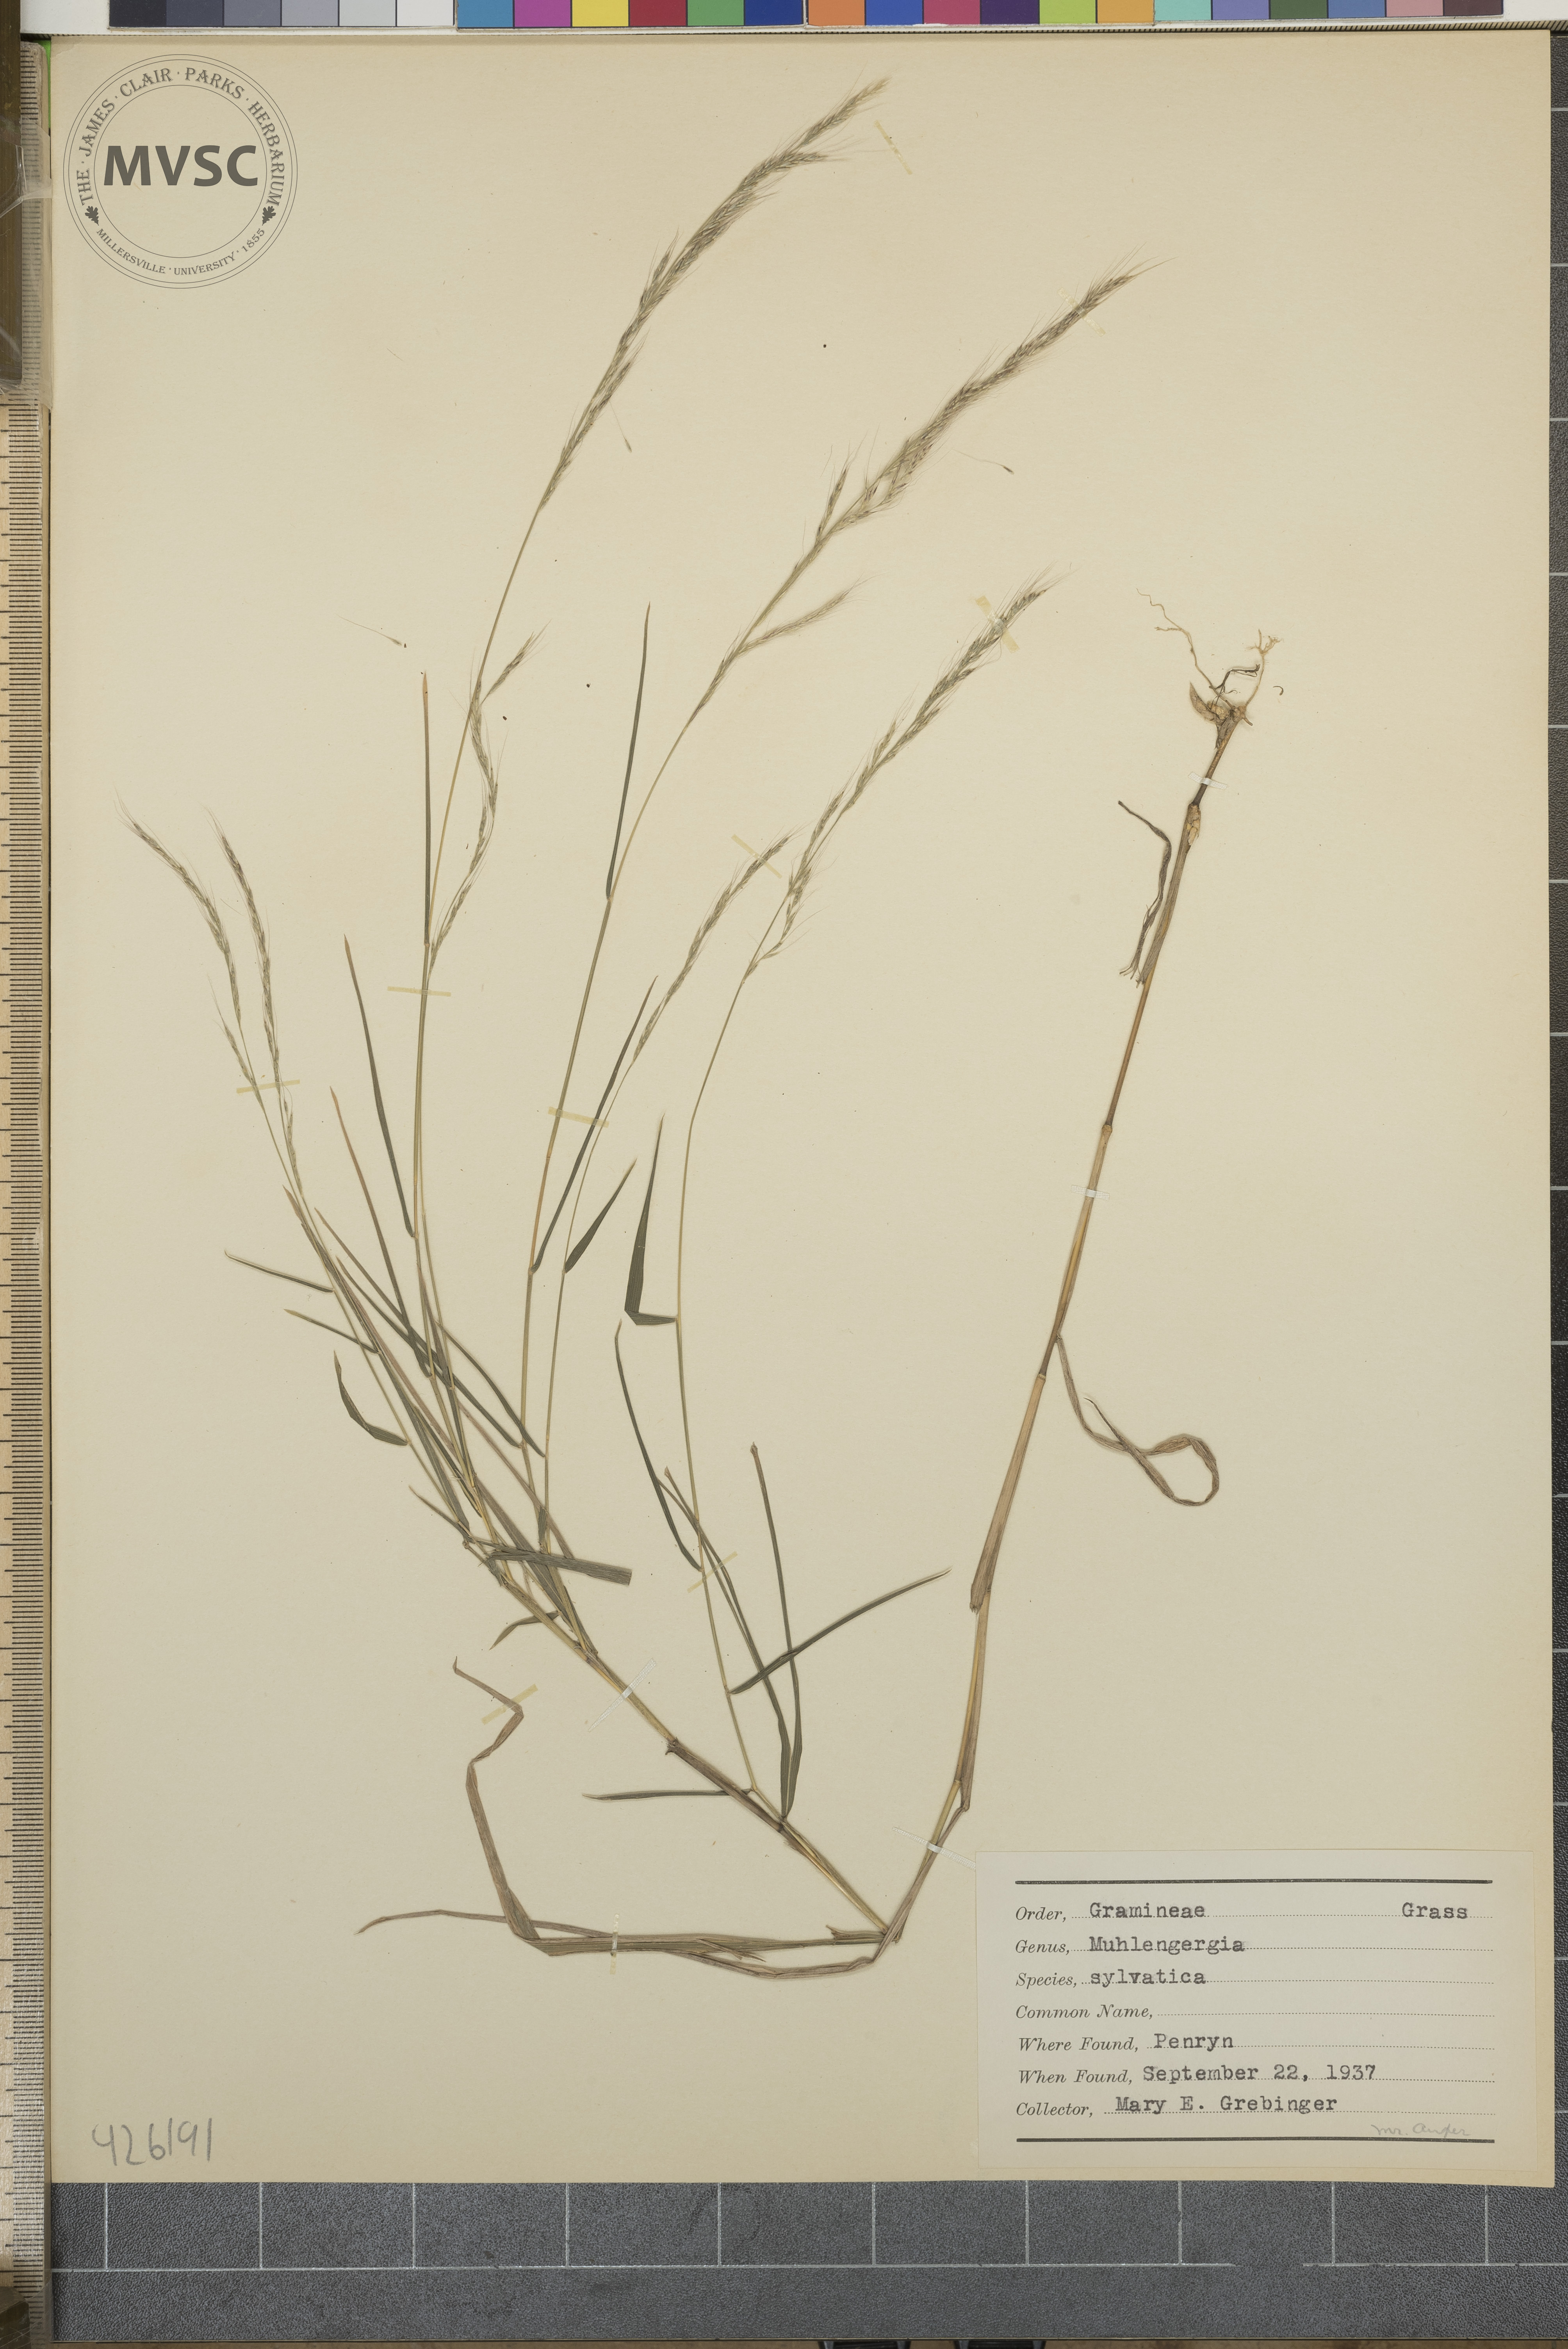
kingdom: Plantae
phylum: Tracheophyta
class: Liliopsida
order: Poales
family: Poaceae
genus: Muhlenbergia
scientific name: Muhlenbergia sylvatica
